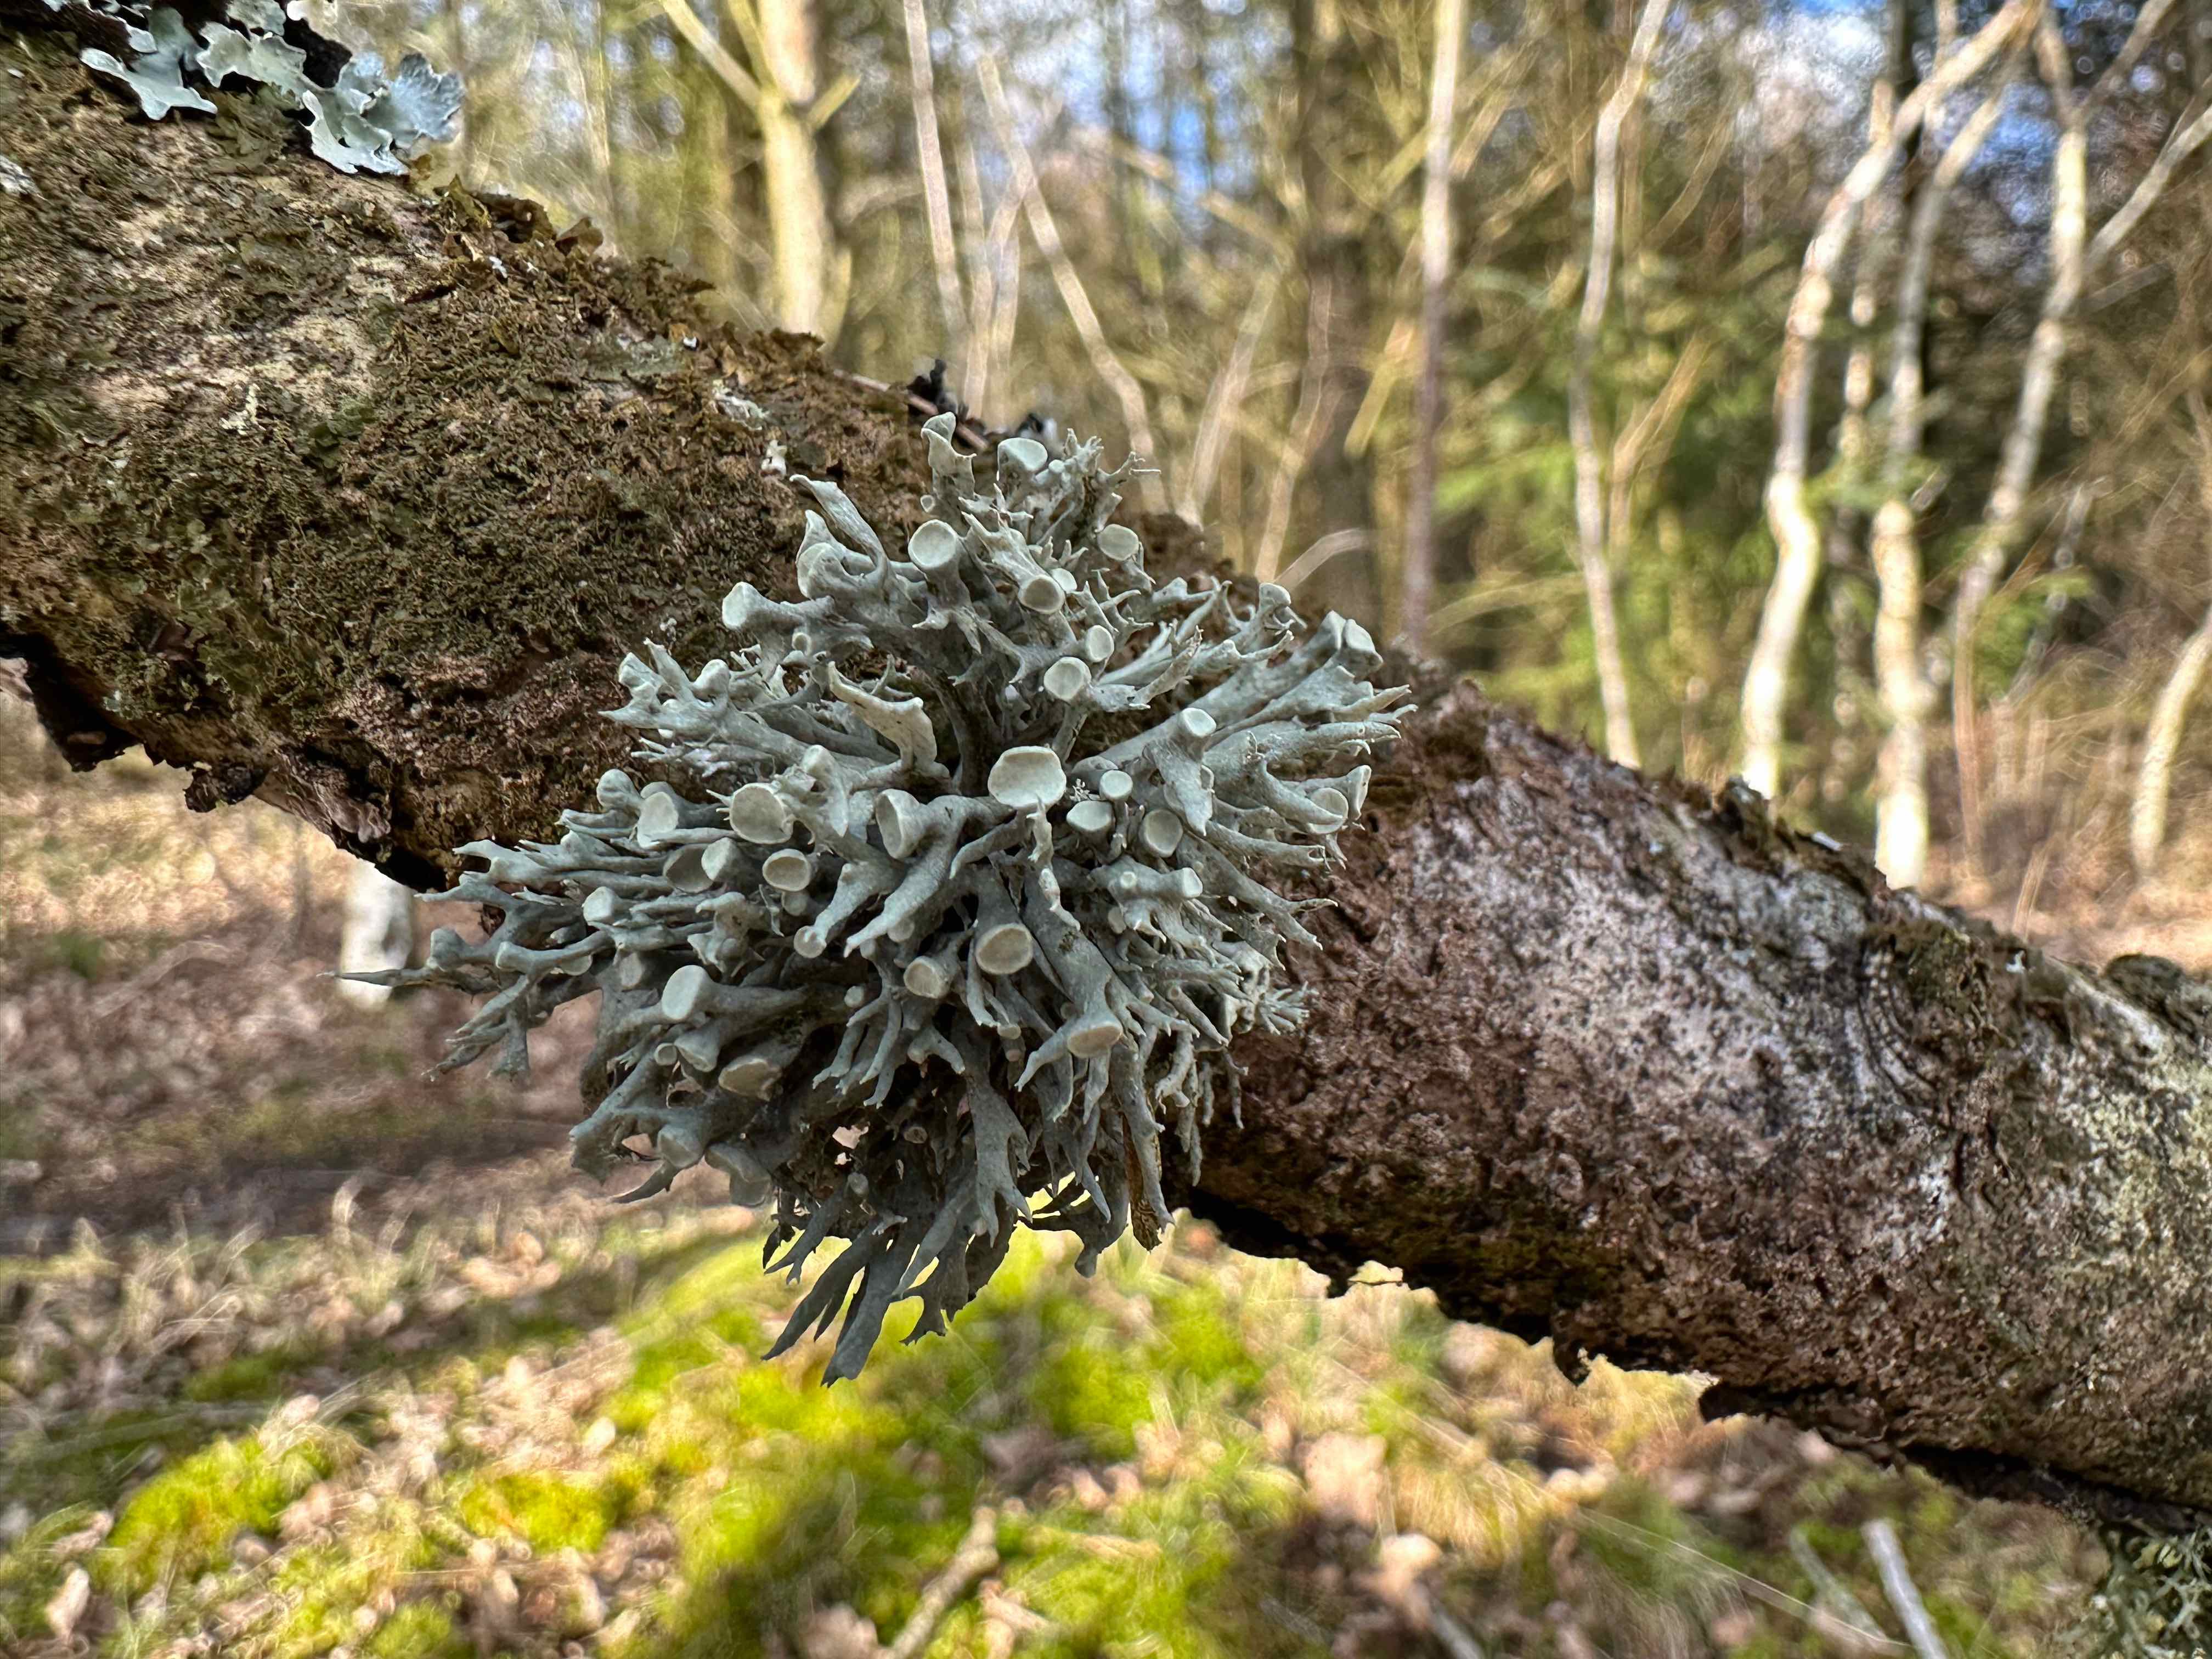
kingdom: Fungi
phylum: Ascomycota
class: Lecanoromycetes
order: Lecanorales
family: Ramalinaceae
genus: Ramalina
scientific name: Ramalina fastigiata
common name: tue-grenlav
